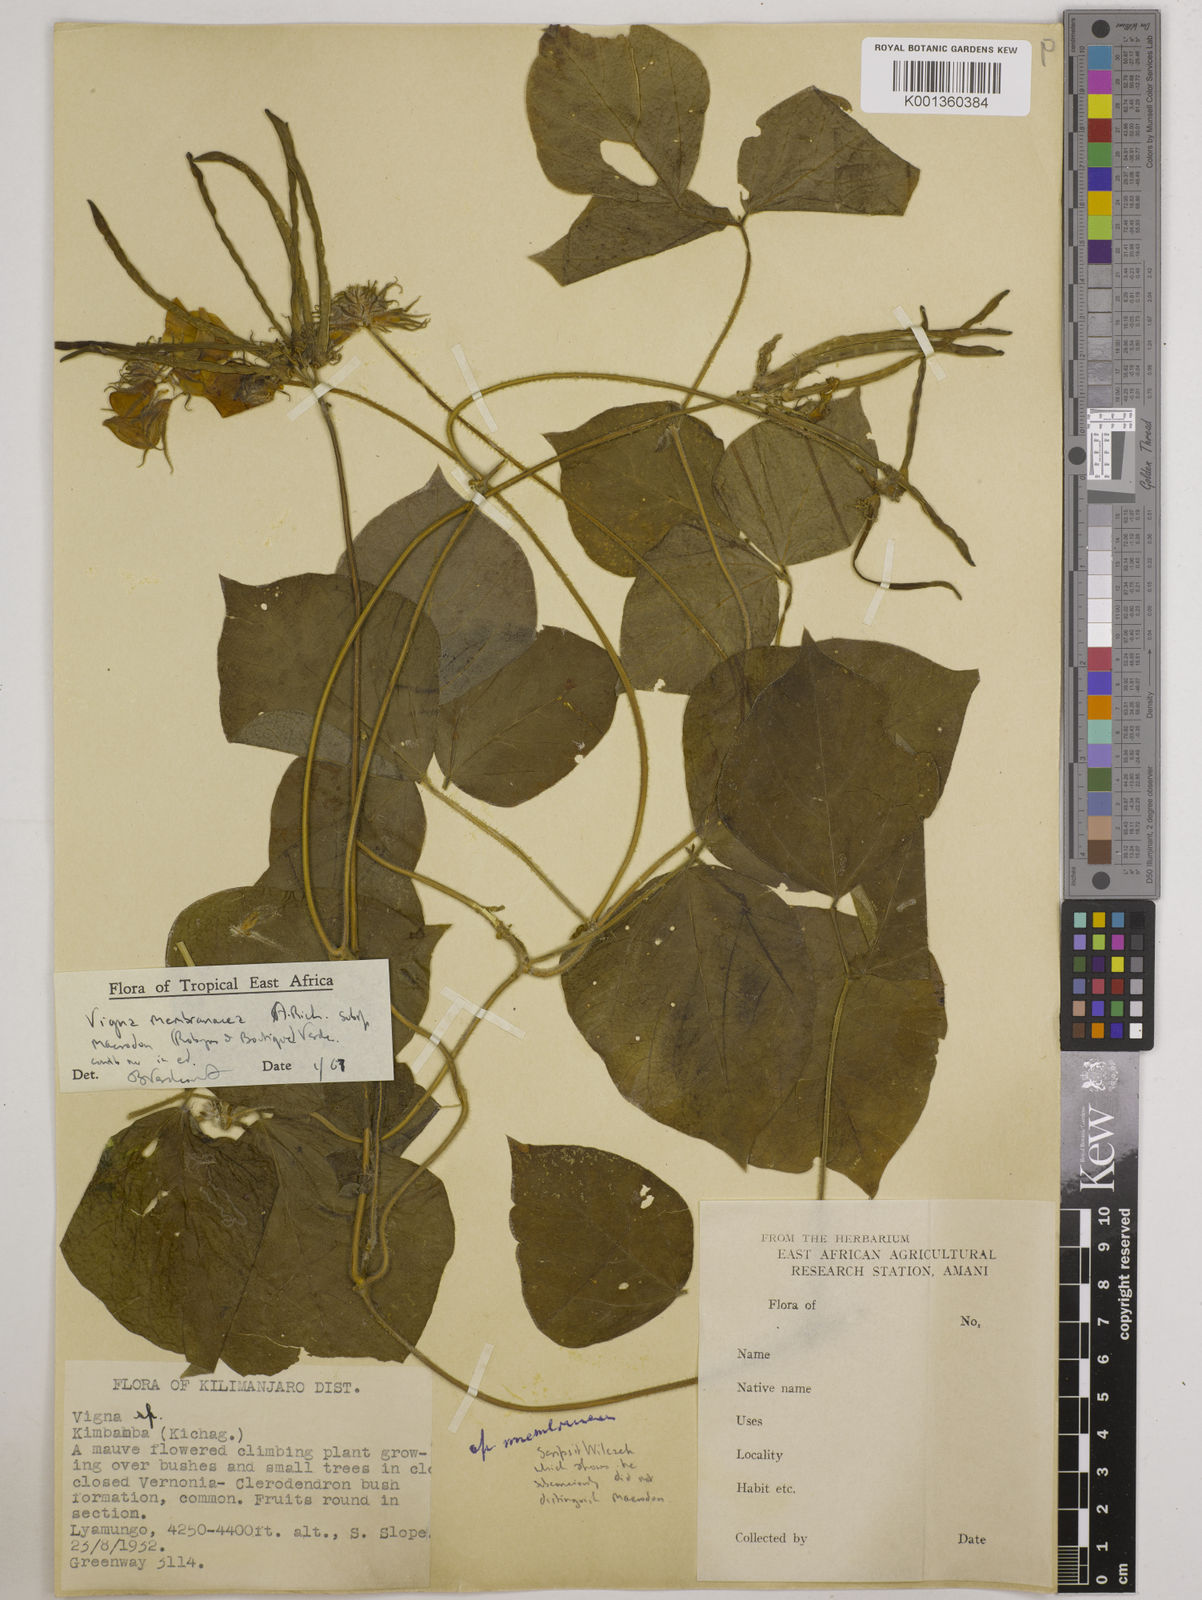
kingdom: Plantae
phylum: Tracheophyta
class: Magnoliopsida
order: Fabales
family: Fabaceae
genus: Vigna
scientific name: Vigna
